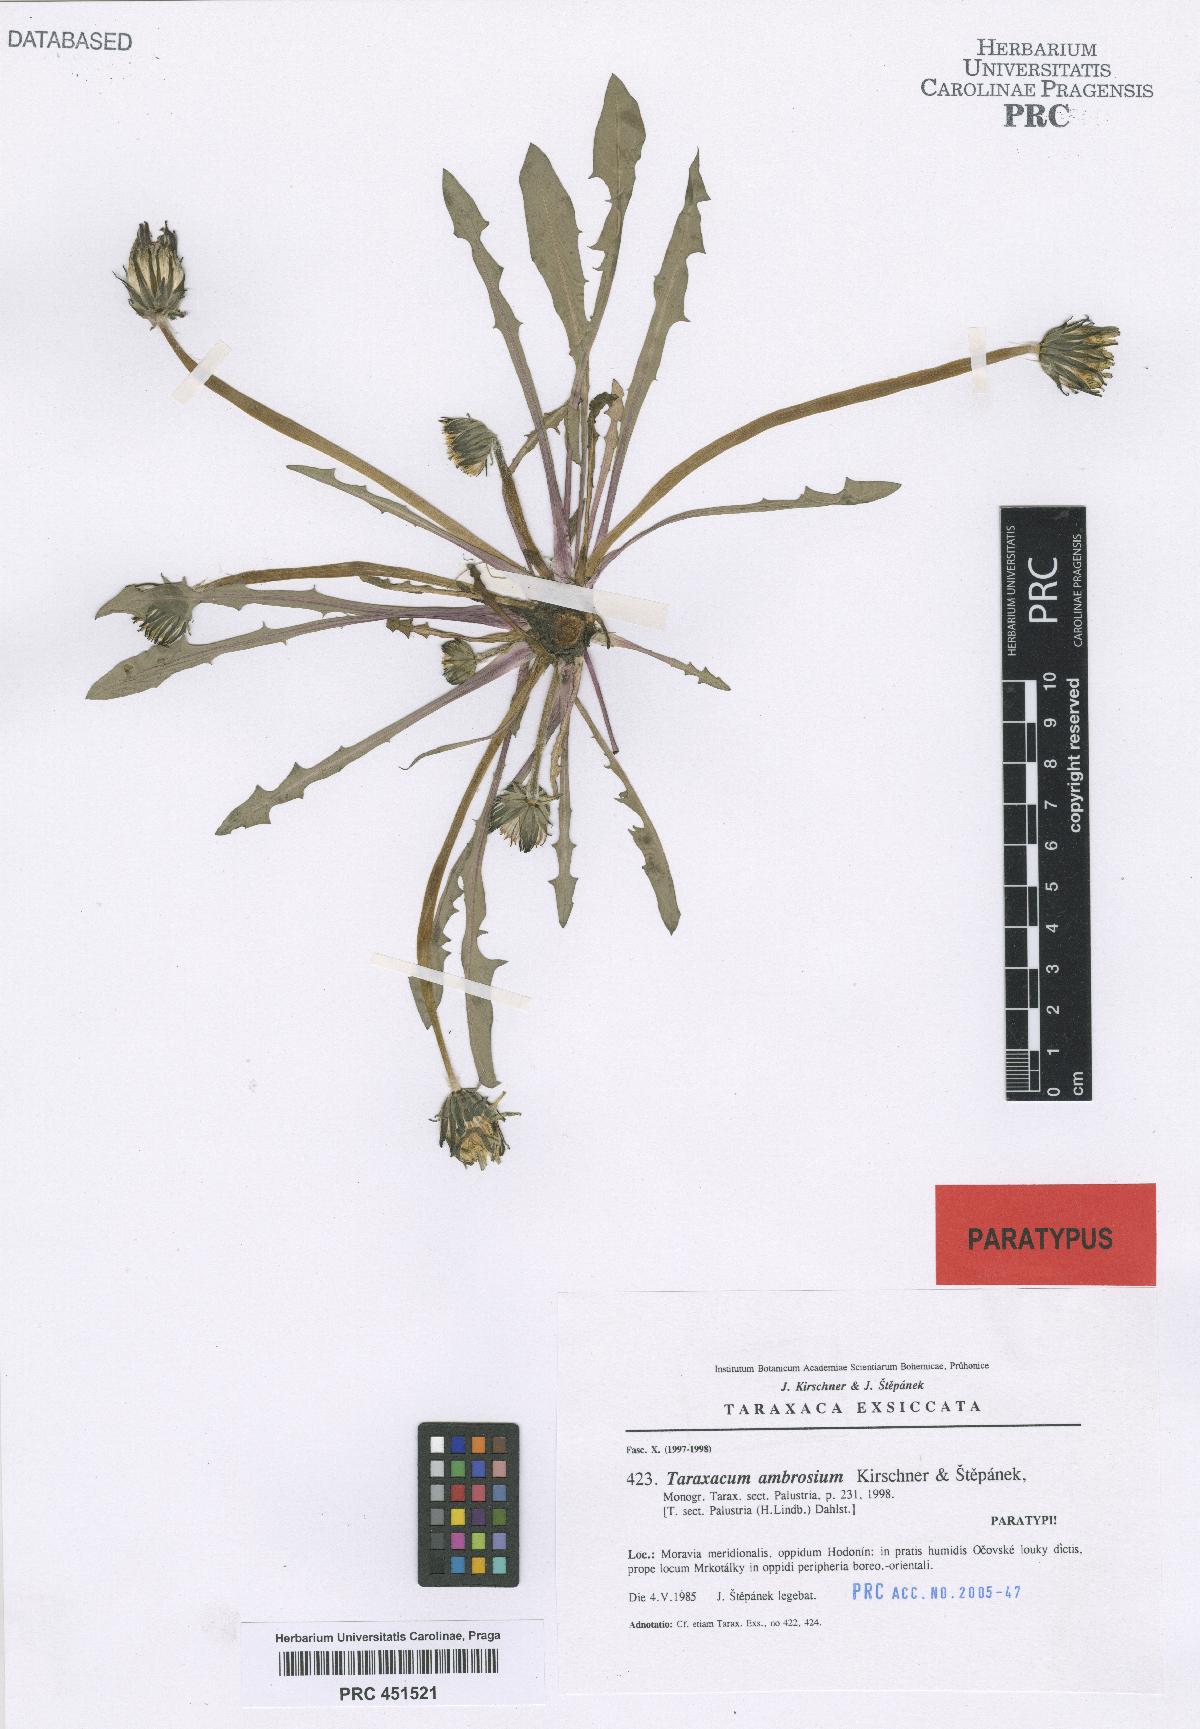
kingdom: Plantae
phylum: Tracheophyta
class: Magnoliopsida
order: Asterales
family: Asteraceae
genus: Taraxacum
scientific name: Taraxacum ambrosium
